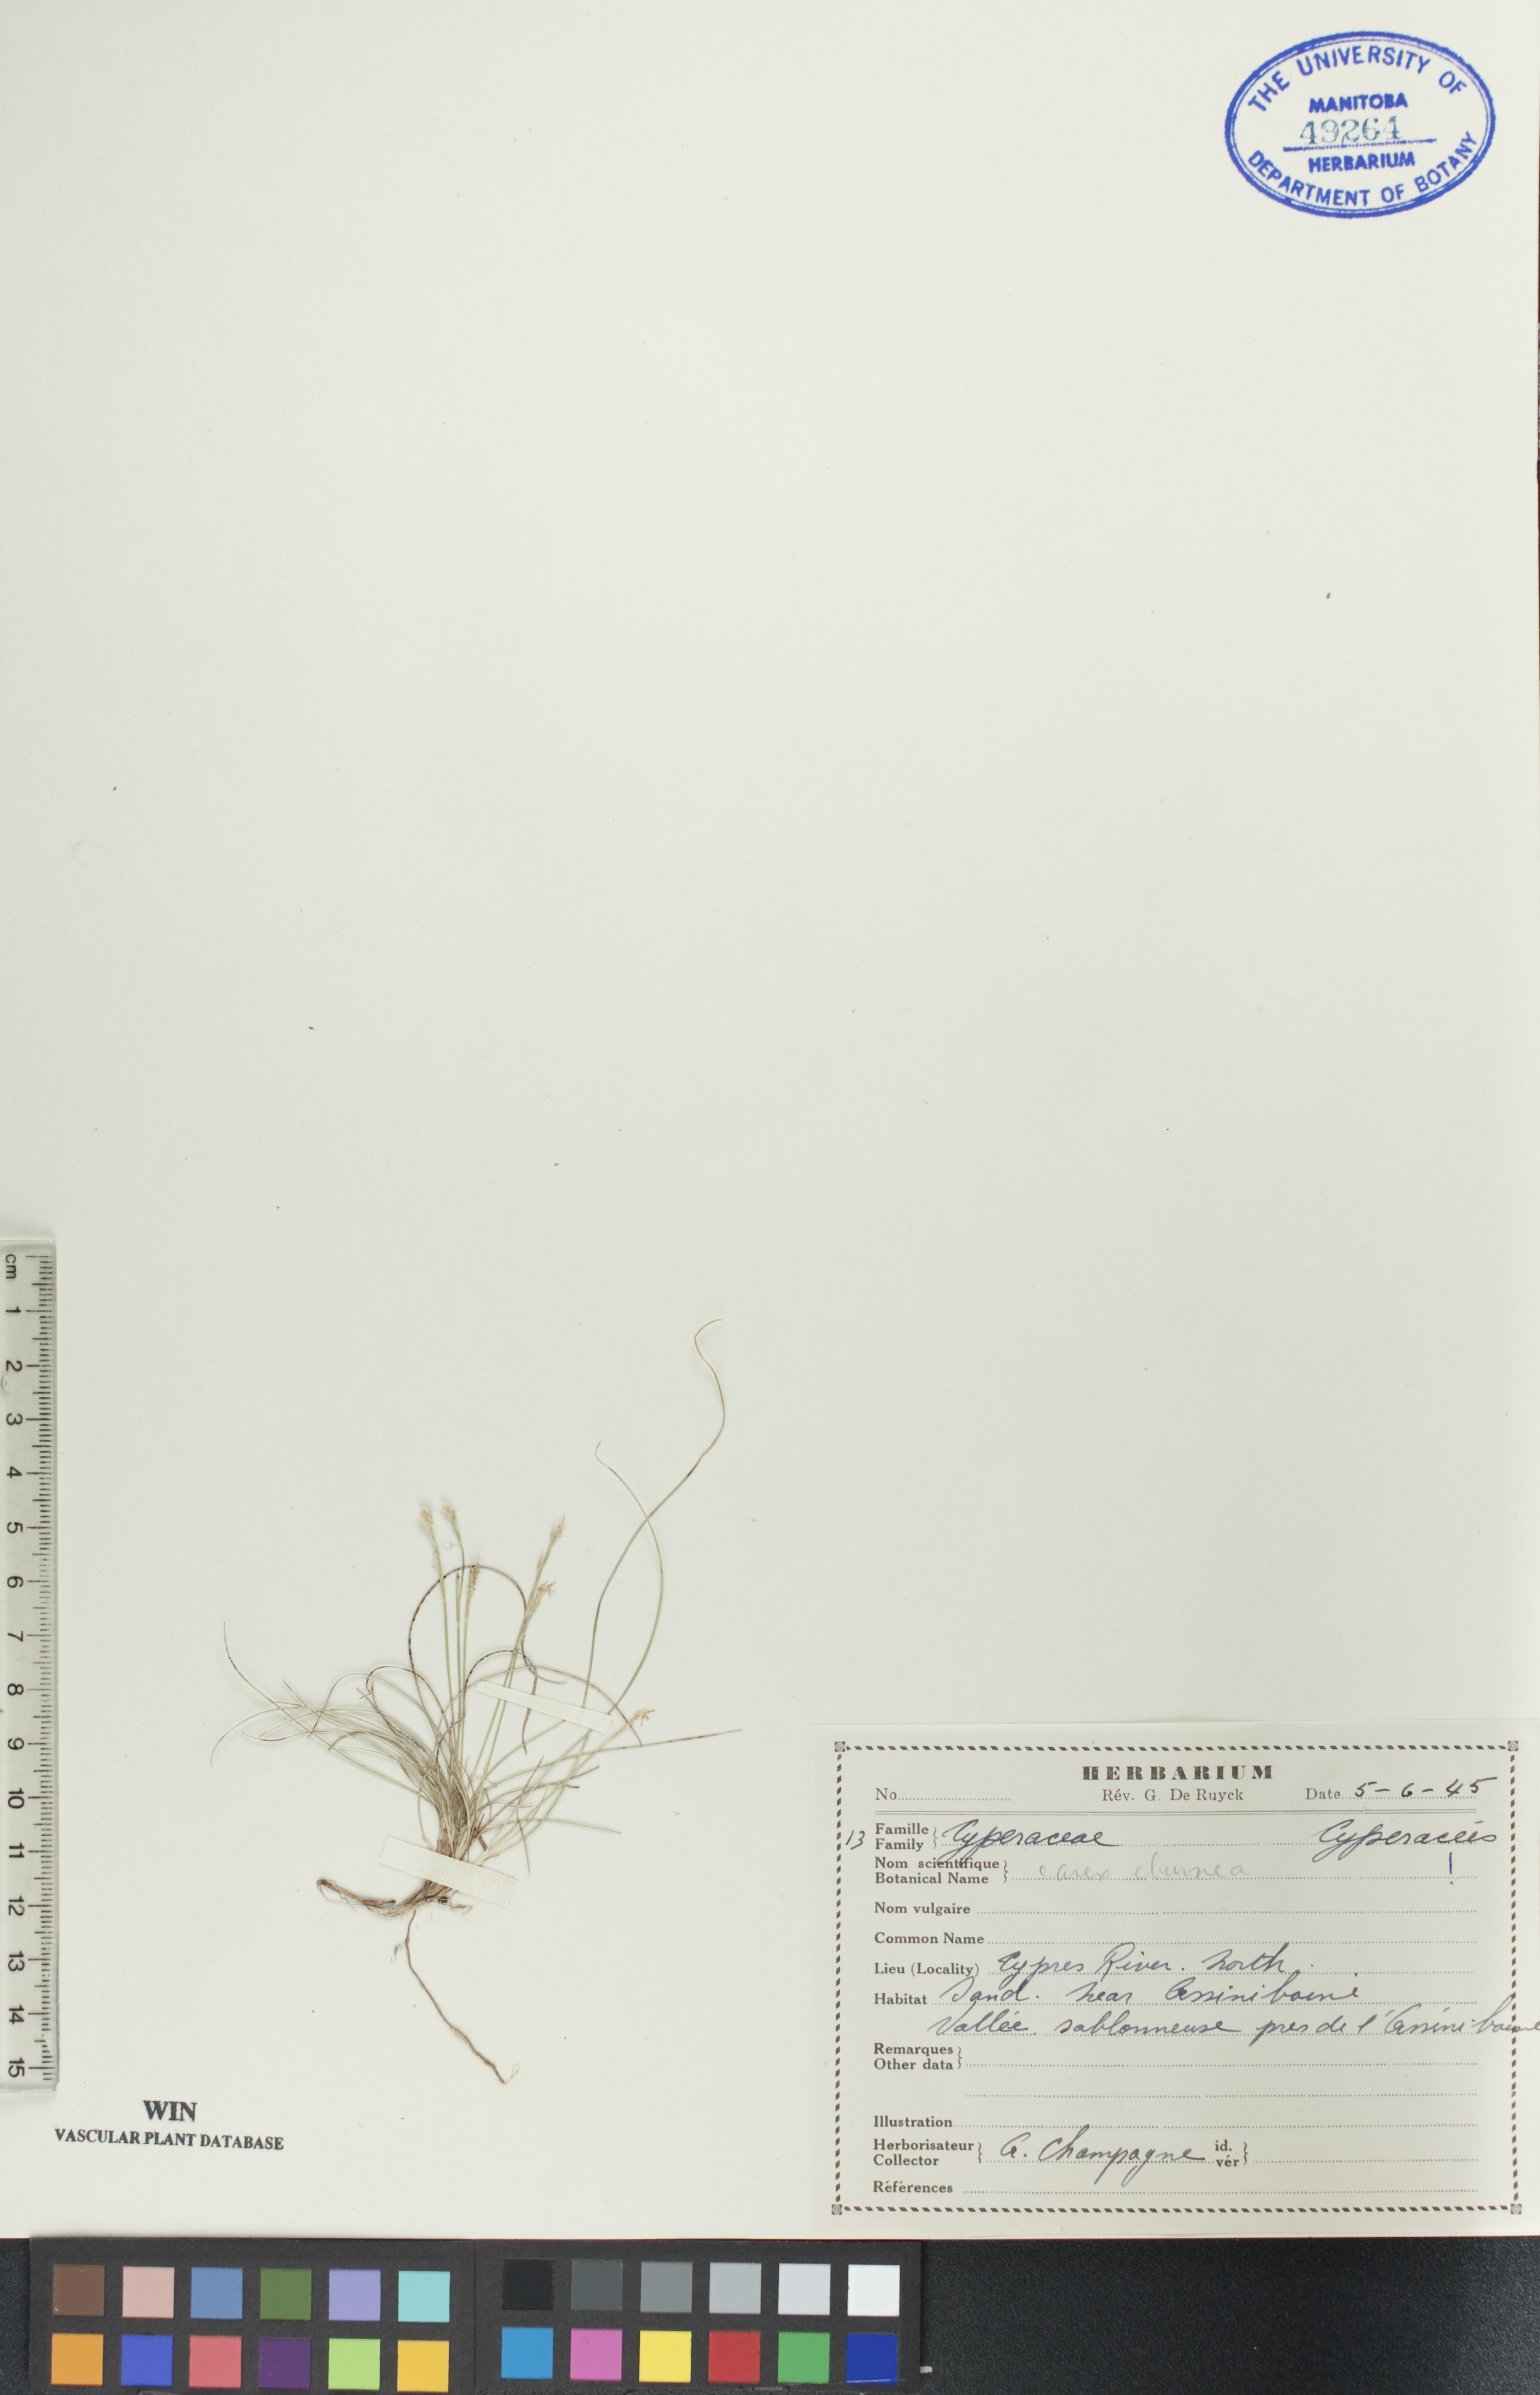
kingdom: Plantae
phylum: Tracheophyta
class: Liliopsida
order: Poales
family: Cyperaceae
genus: Carex
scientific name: Carex eburnea
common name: Bristle-leaved sedge
